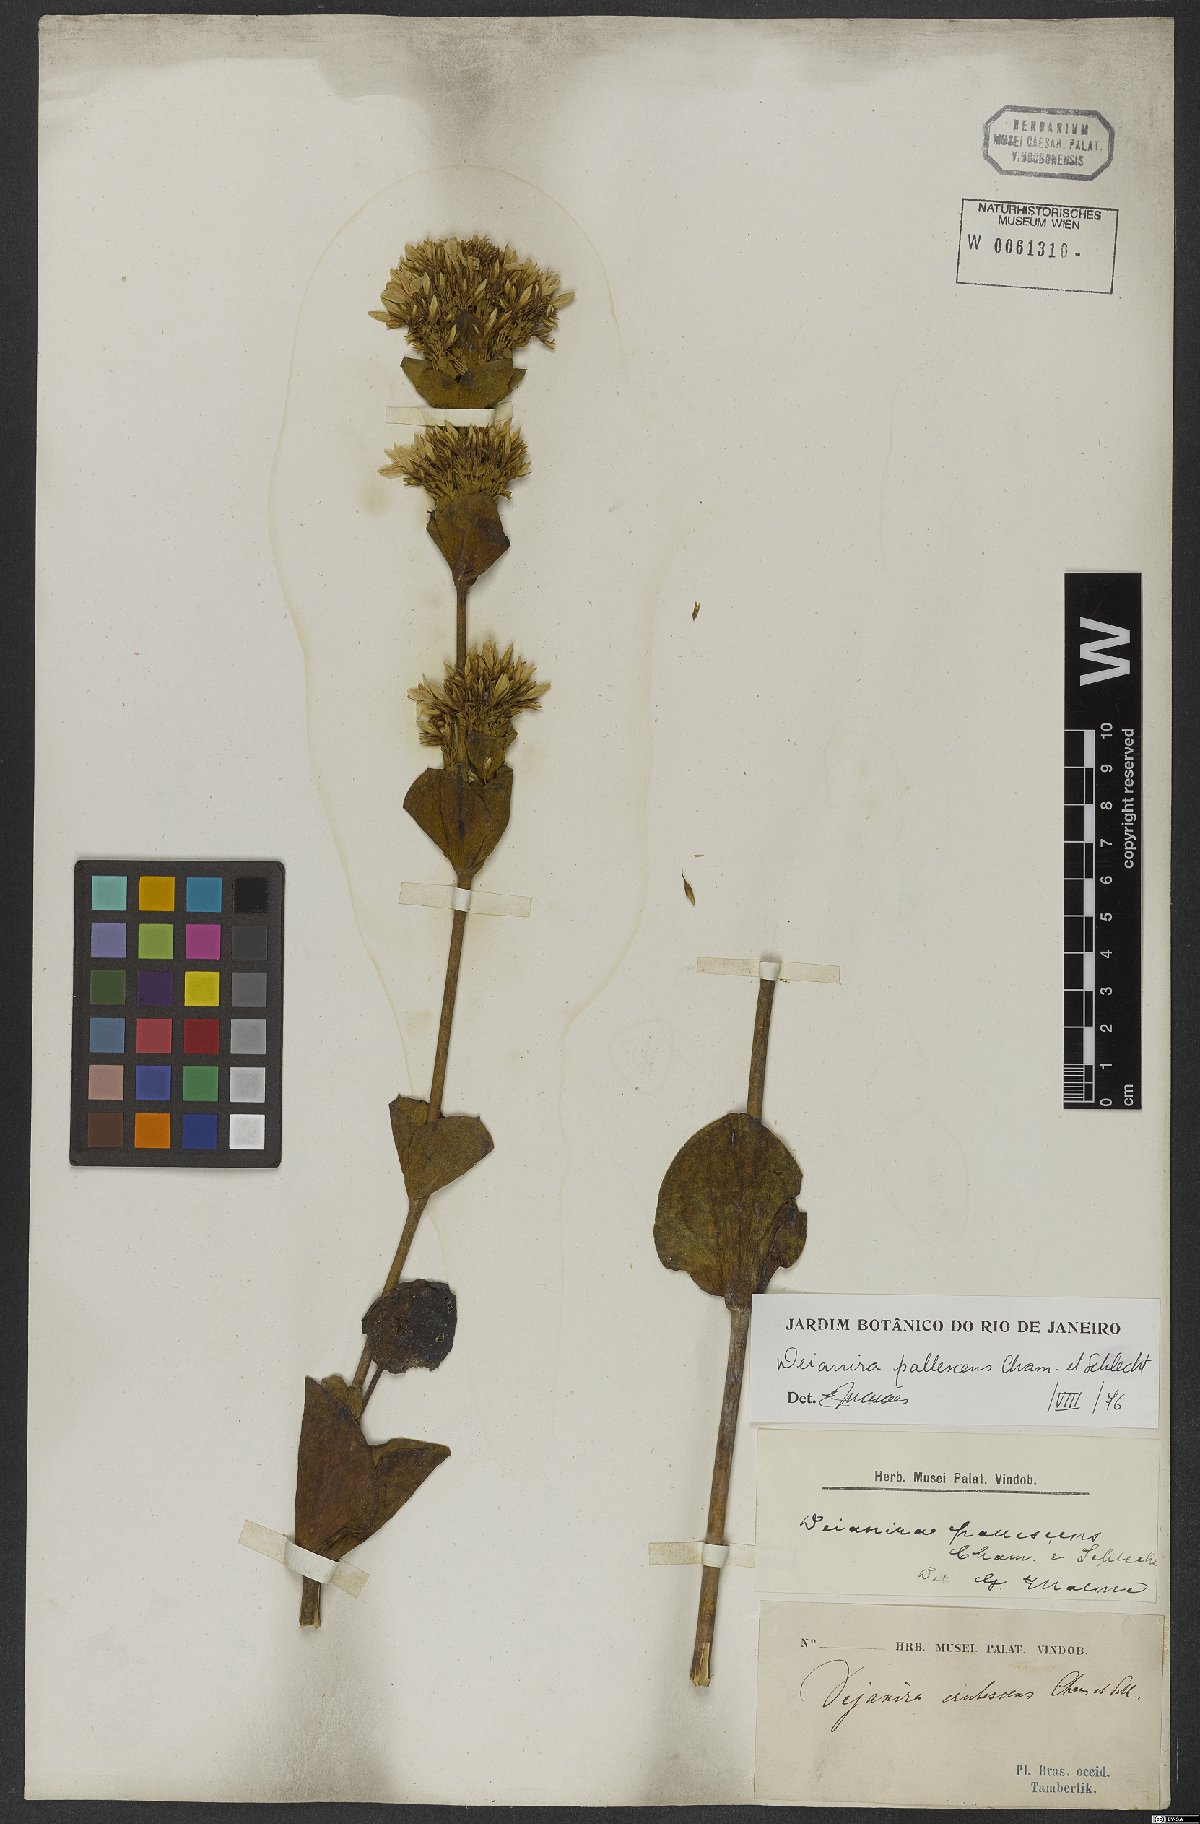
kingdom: Plantae
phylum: Tracheophyta
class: Magnoliopsida
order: Gentianales
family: Gentianaceae
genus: Deianira
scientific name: Deianira pallescens
